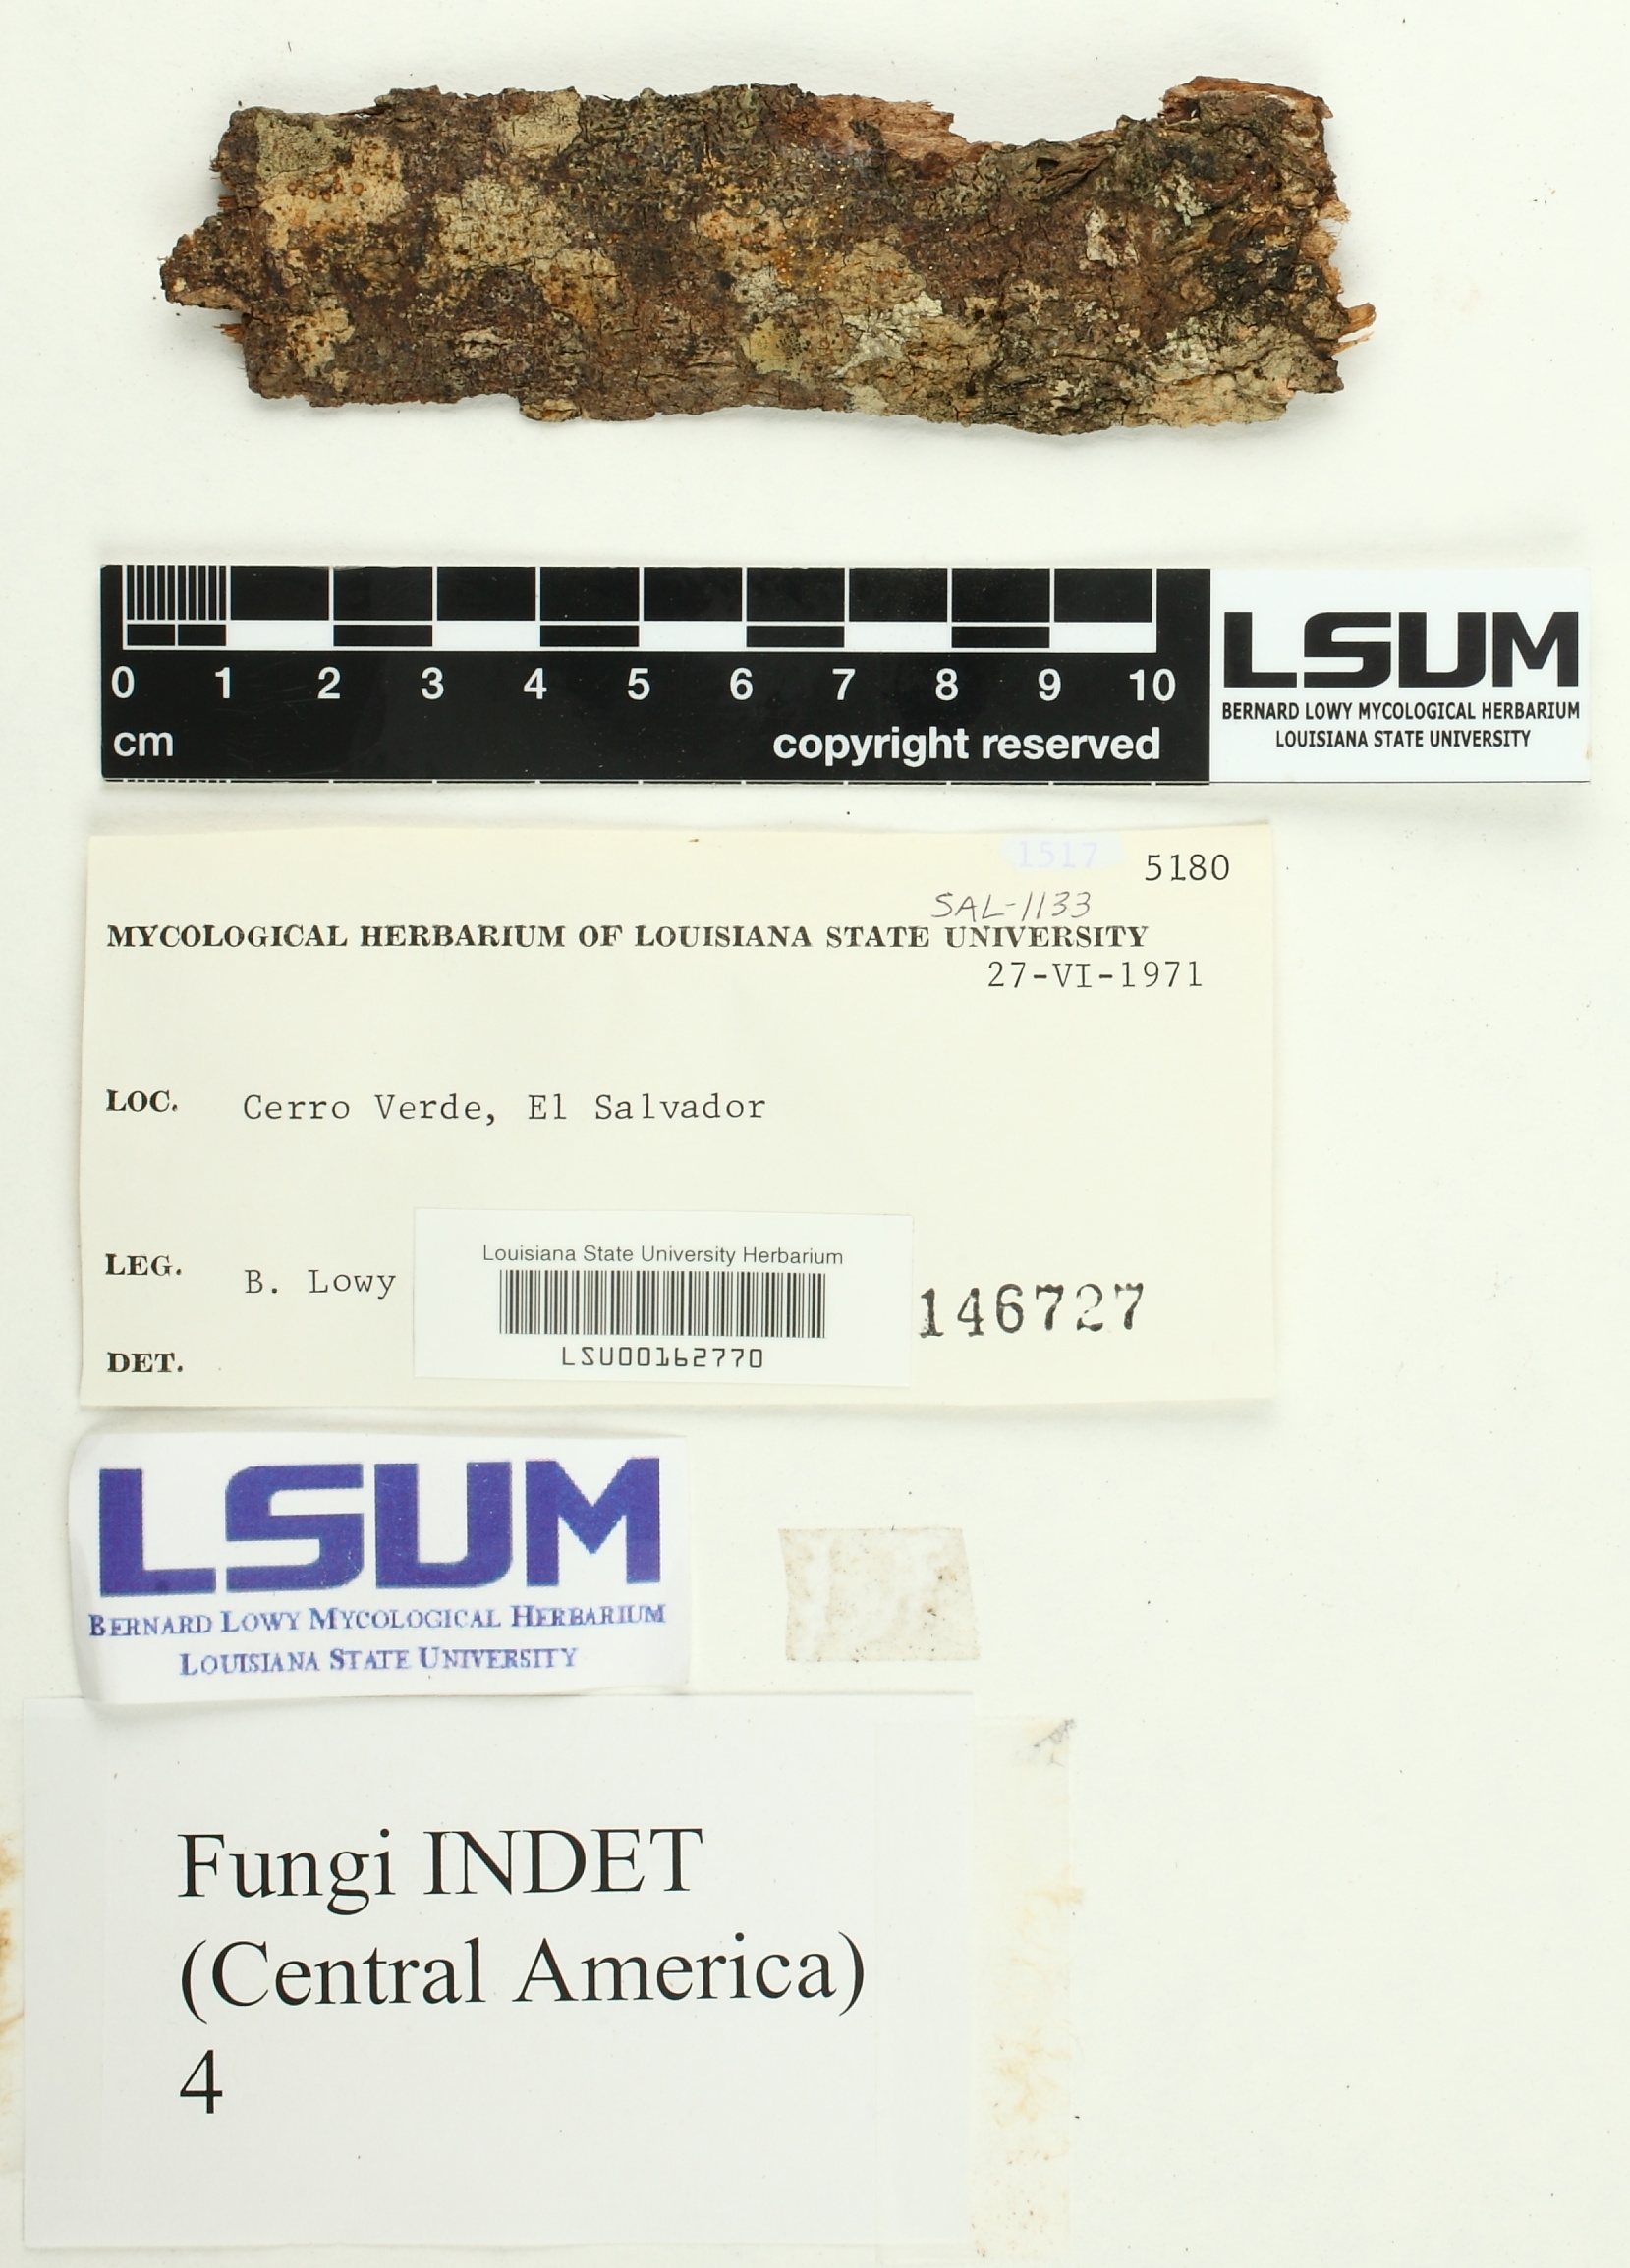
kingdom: Fungi
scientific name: Fungi
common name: Fungi
